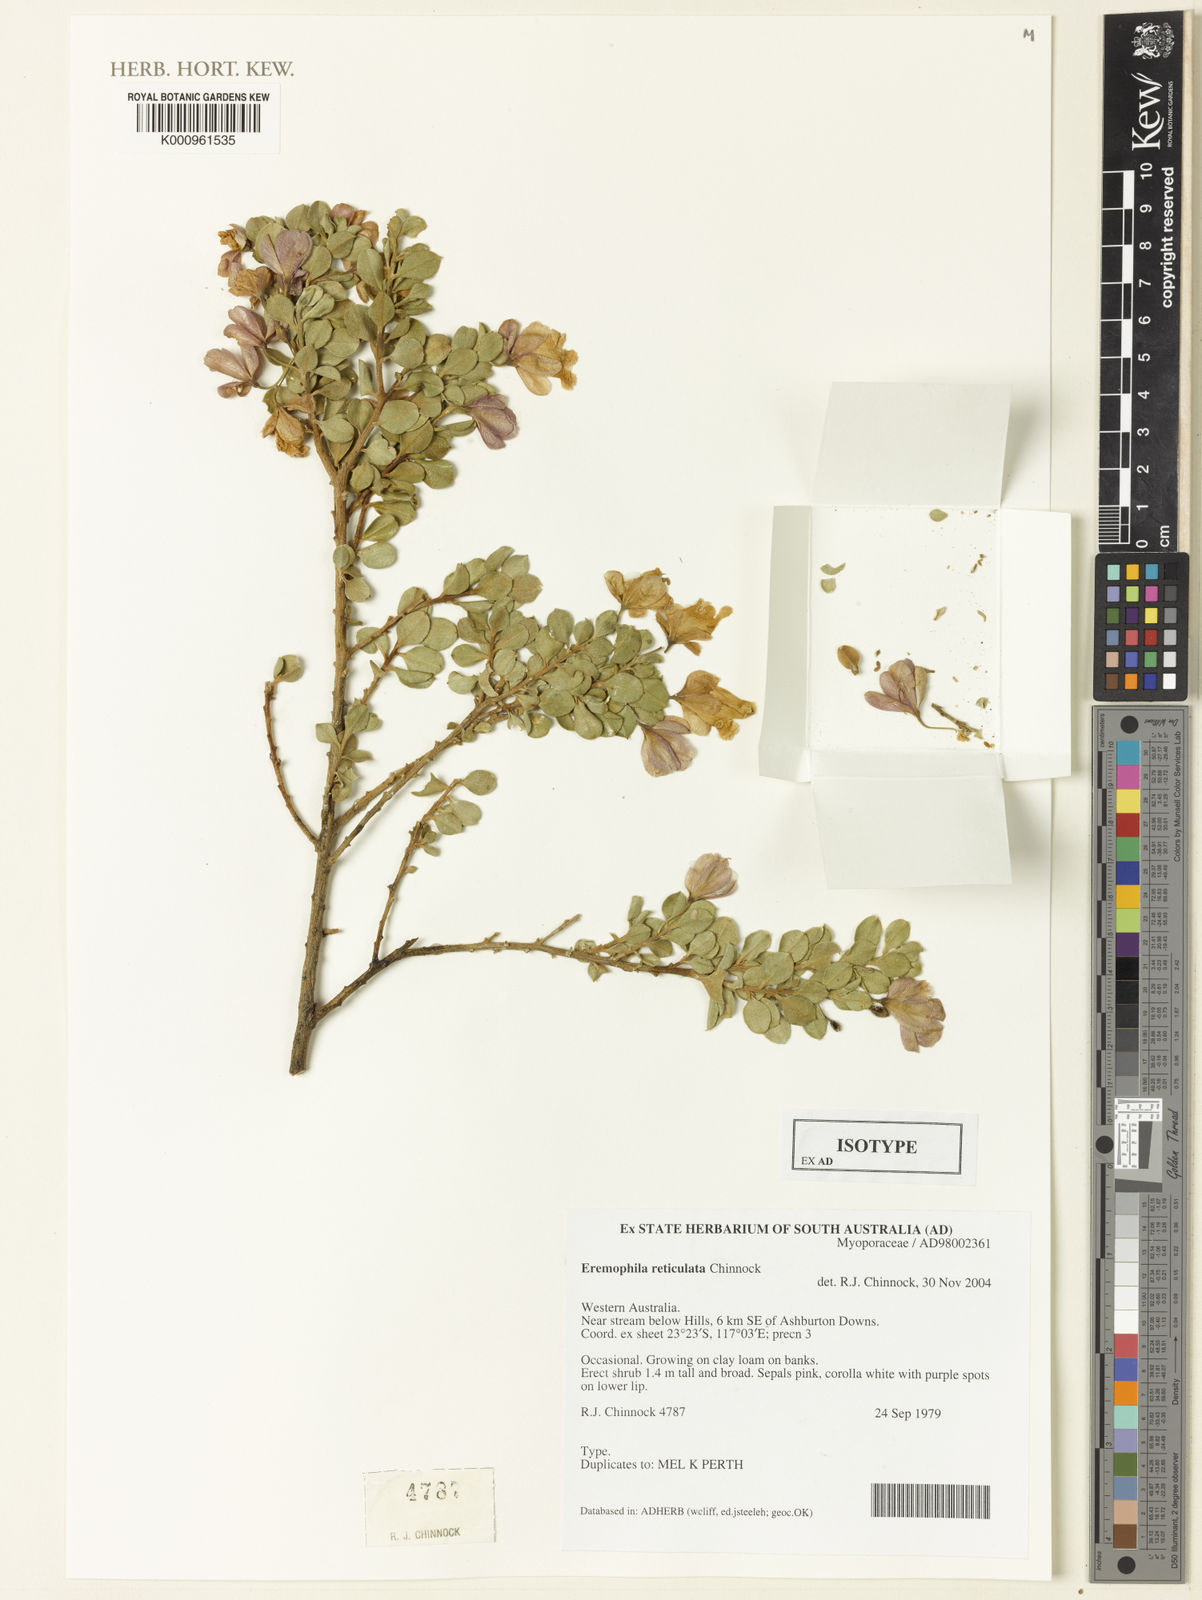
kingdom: Plantae
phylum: Tracheophyta
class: Magnoliopsida
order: Lamiales
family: Scrophulariaceae
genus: Eremophila
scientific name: Eremophila reticulata
